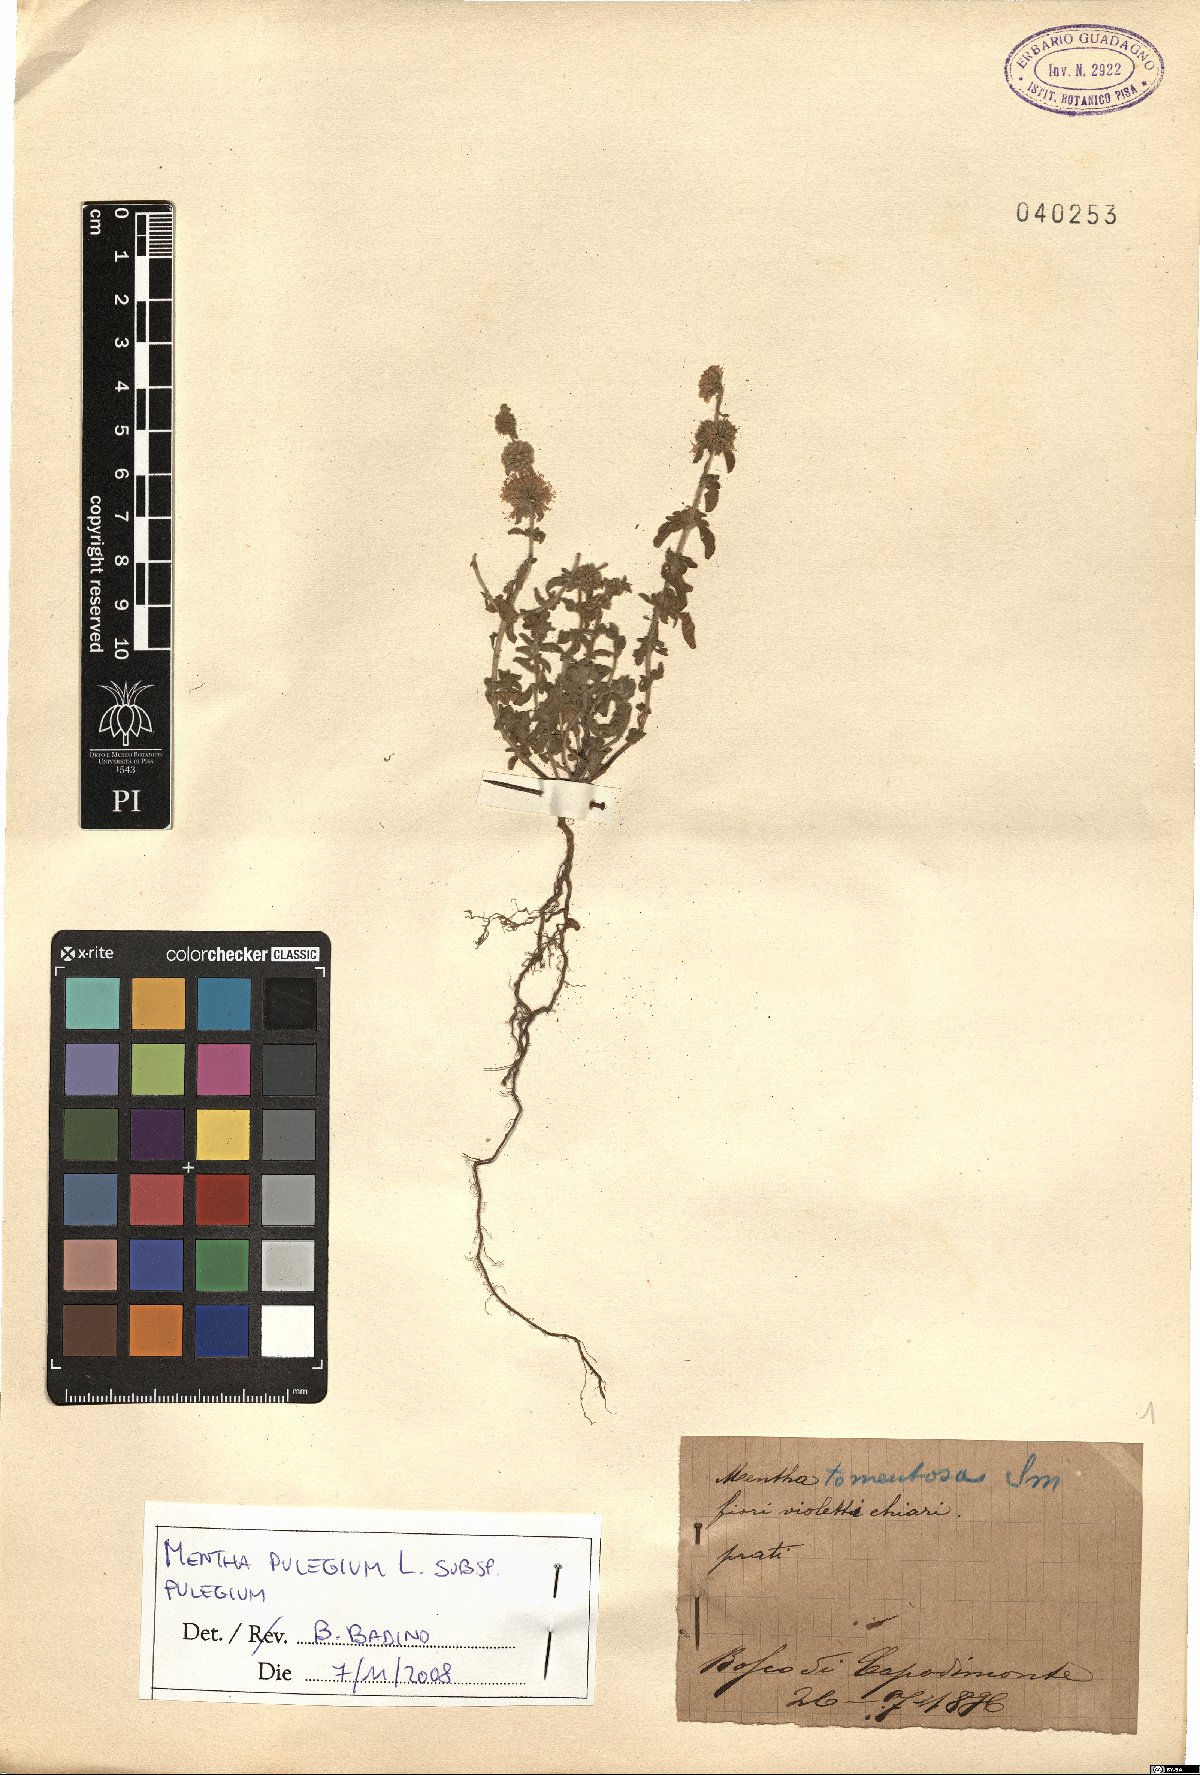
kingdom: Plantae
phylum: Tracheophyta
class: Magnoliopsida
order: Lamiales
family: Lamiaceae
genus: Mentha
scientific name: Mentha pulegium
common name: Pennyroyal
